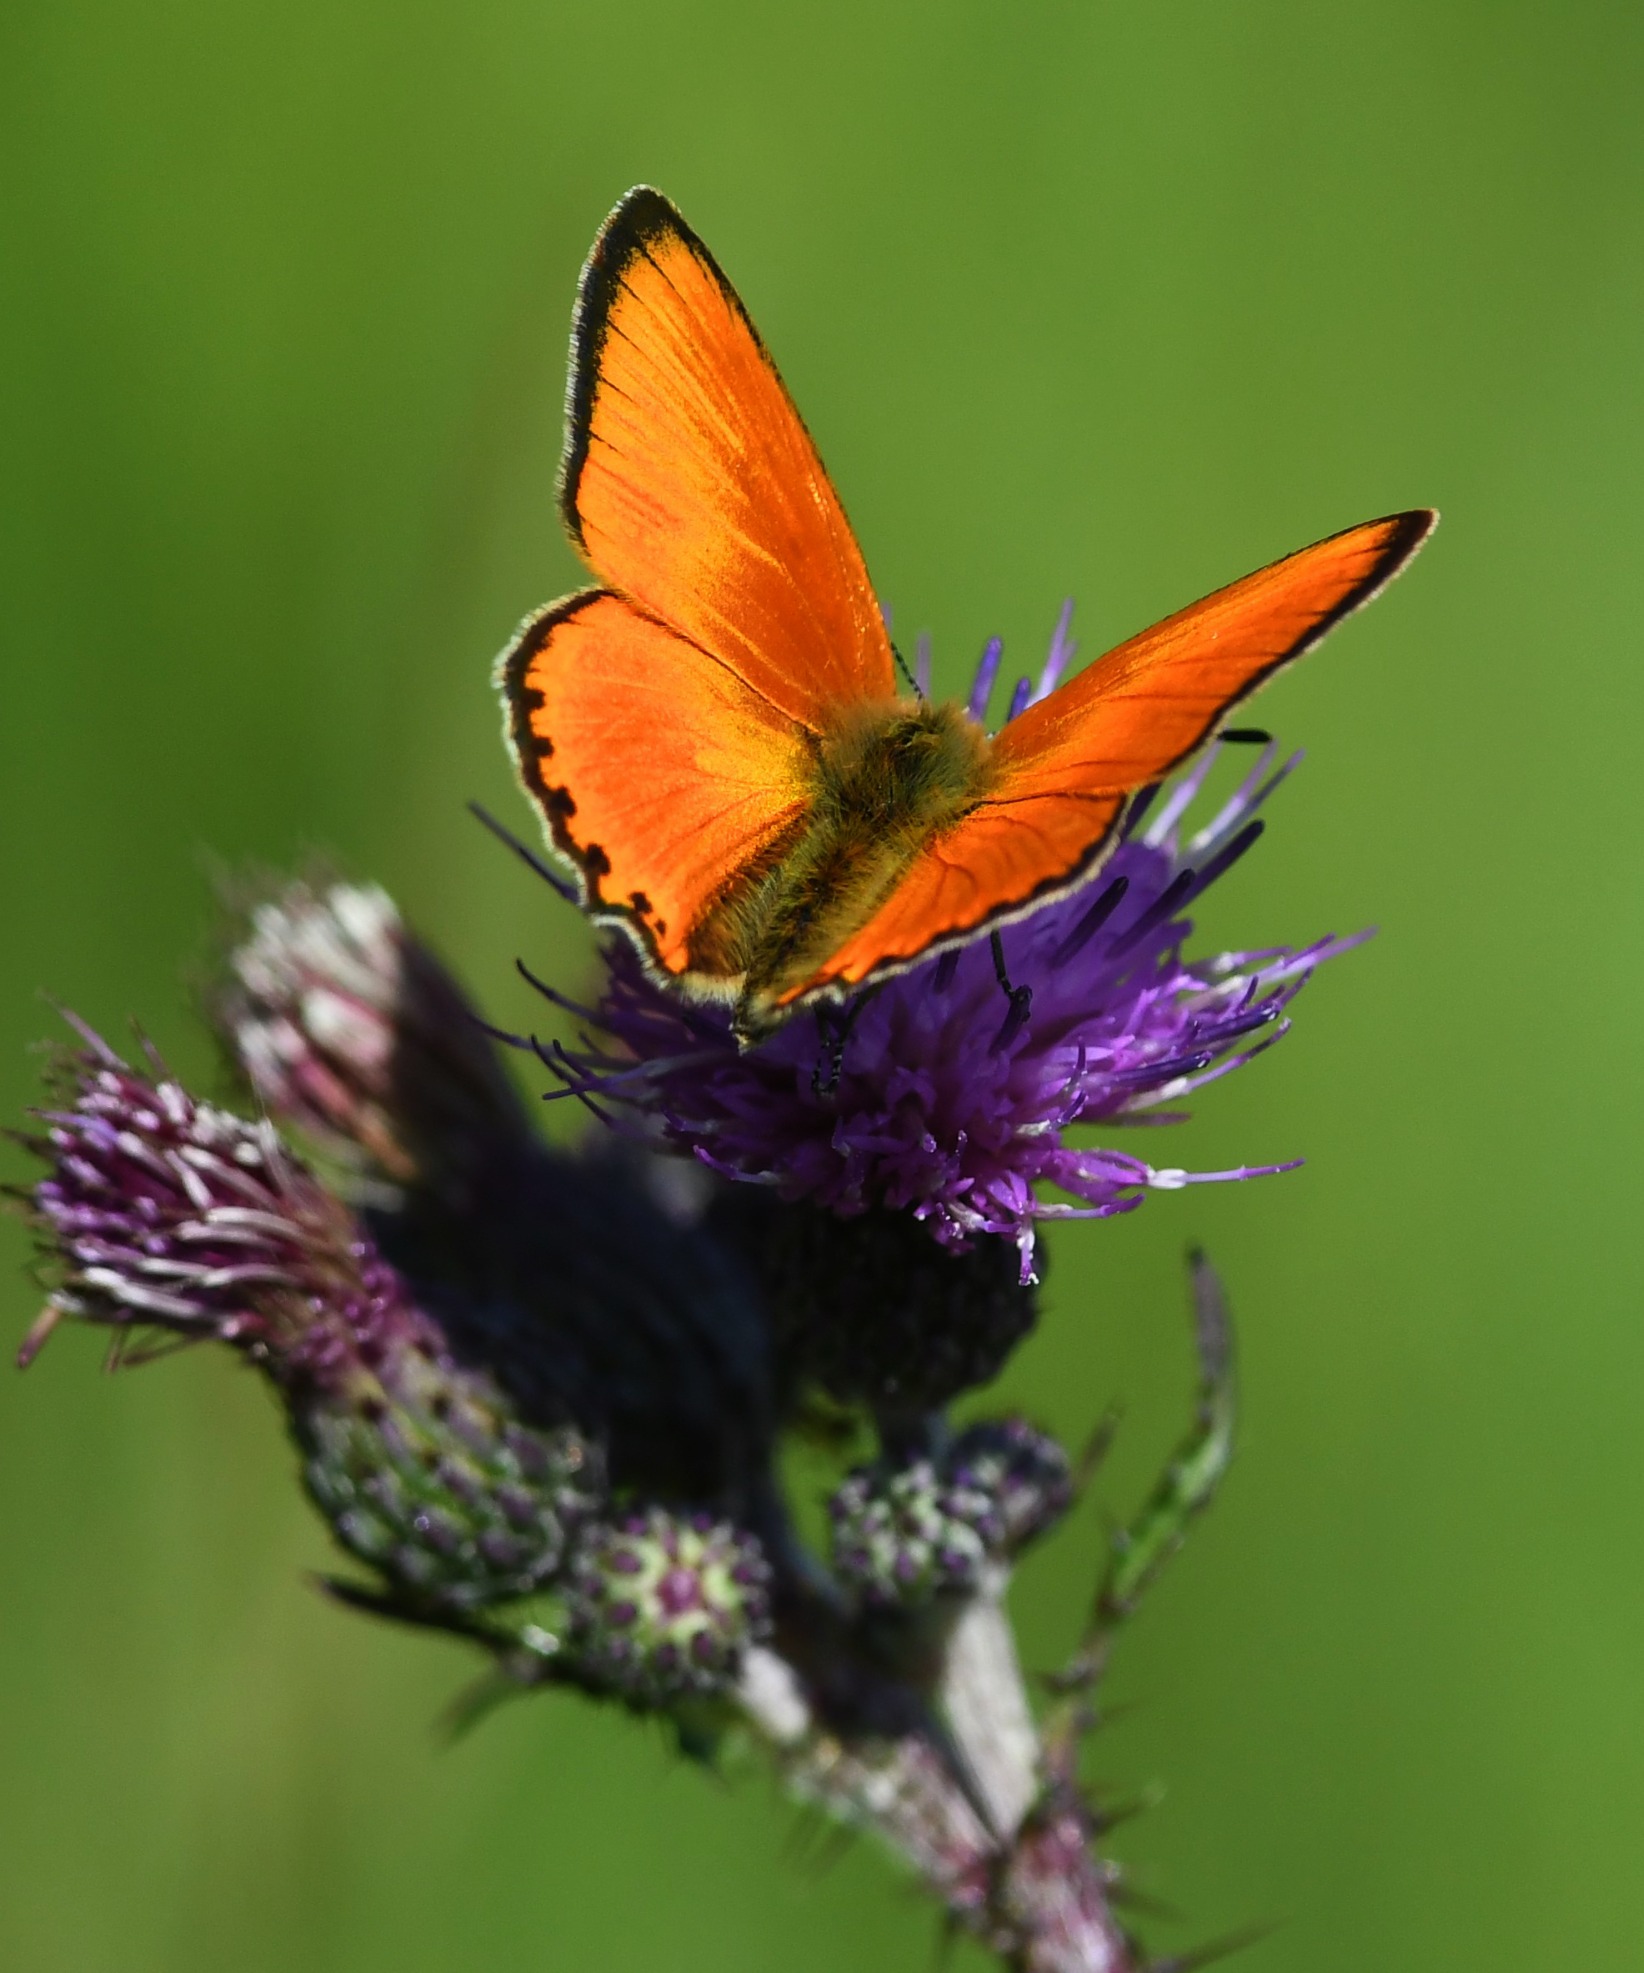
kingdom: Animalia
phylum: Arthropoda
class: Insecta
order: Lepidoptera
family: Lycaenidae
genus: Lycaena
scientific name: Lycaena virgaureae
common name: Dukatsommerfugl
